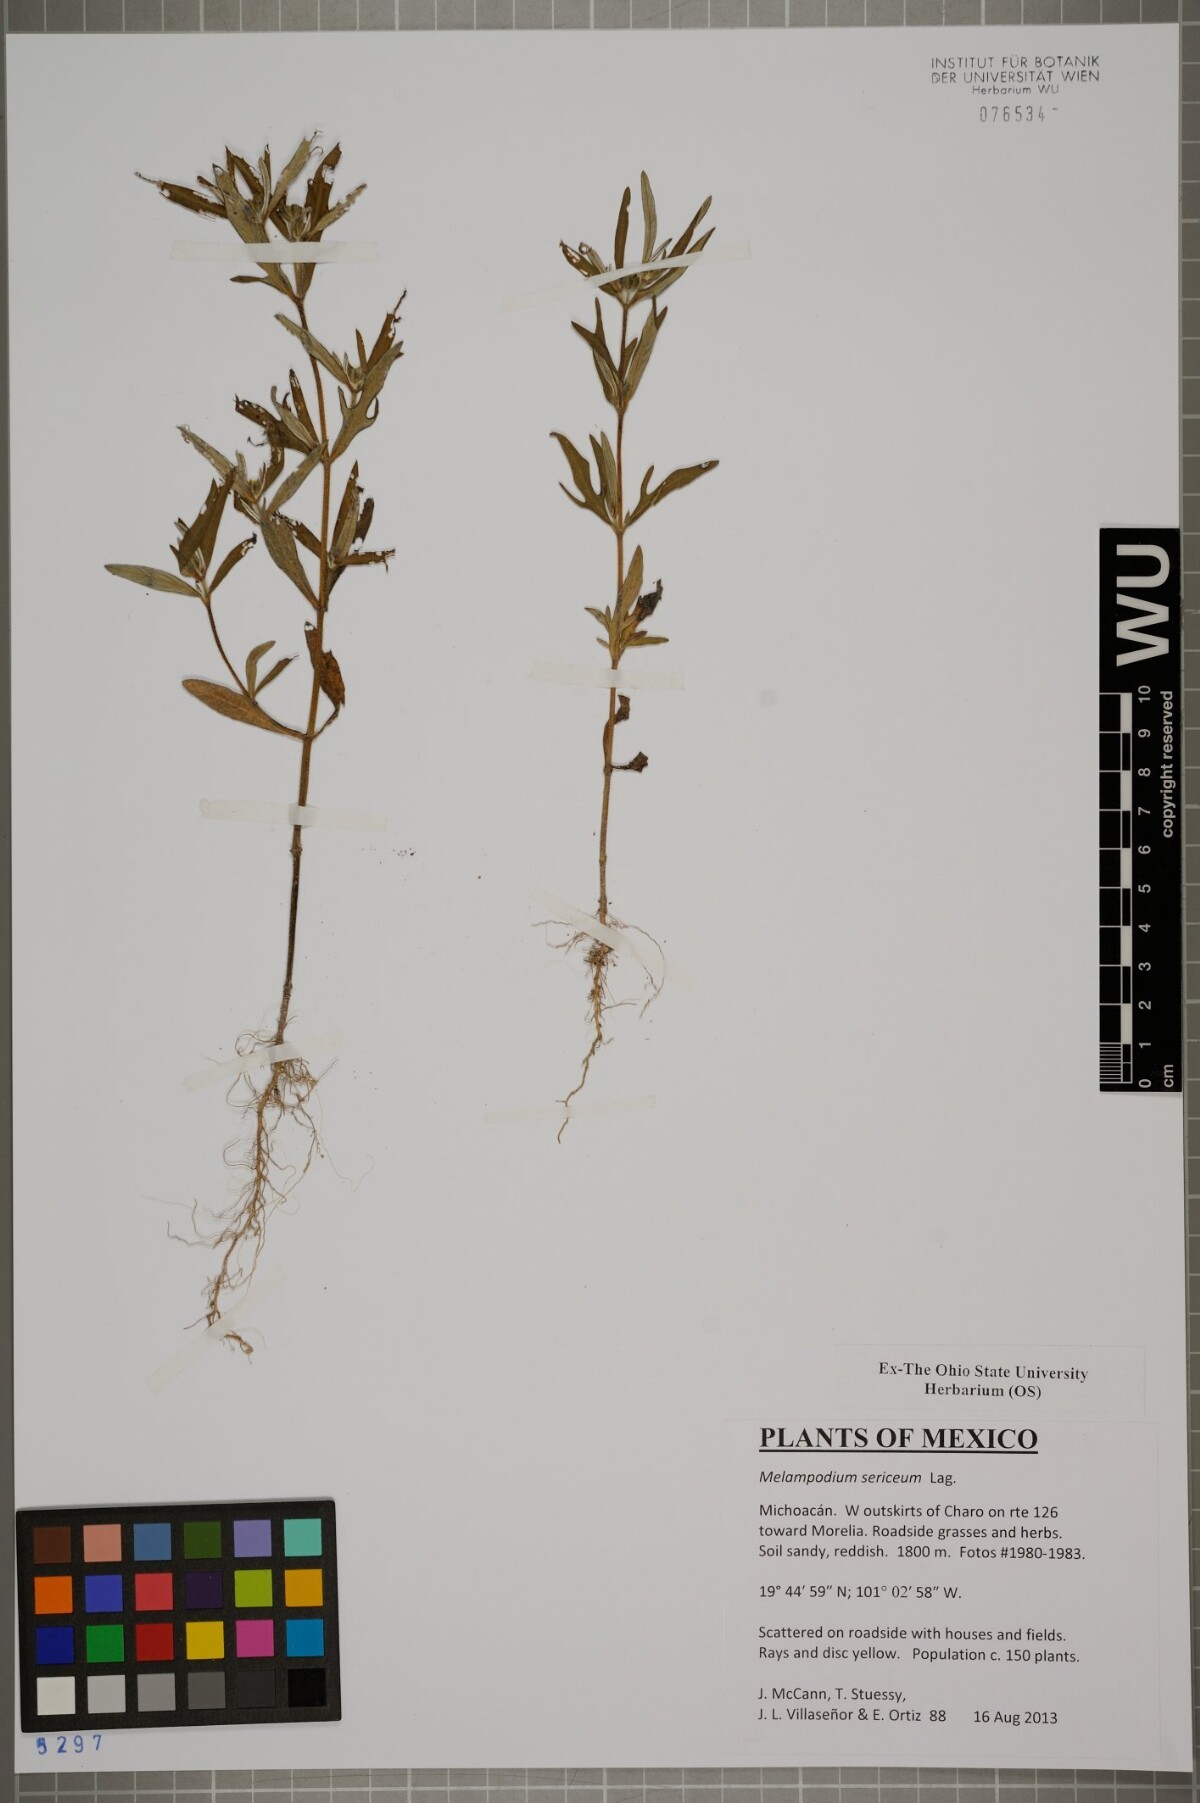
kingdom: Plantae
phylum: Tracheophyta
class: Magnoliopsida
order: Asterales
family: Asteraceae
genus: Melampodium
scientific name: Melampodium sericeum
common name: Rough blackfoot
